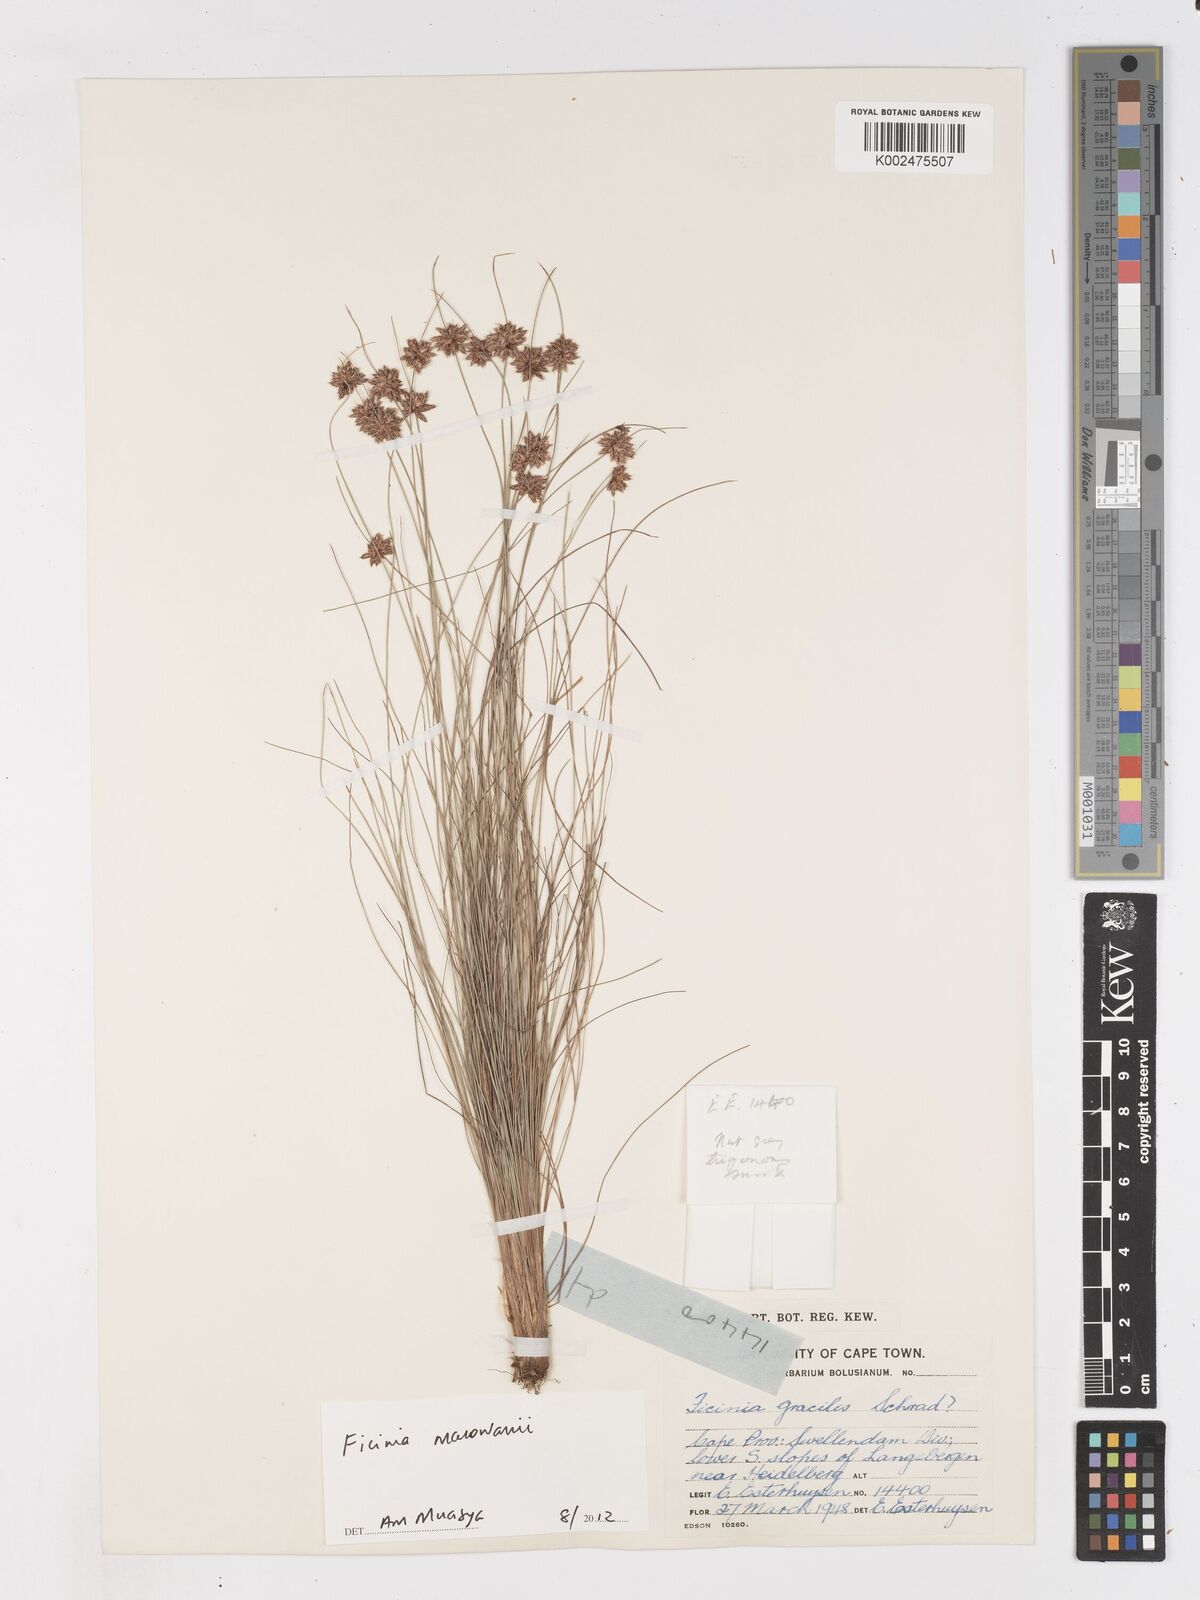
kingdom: Plantae
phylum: Tracheophyta
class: Liliopsida
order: Poales
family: Cyperaceae
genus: Ficinia
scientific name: Ficinia macowanii
